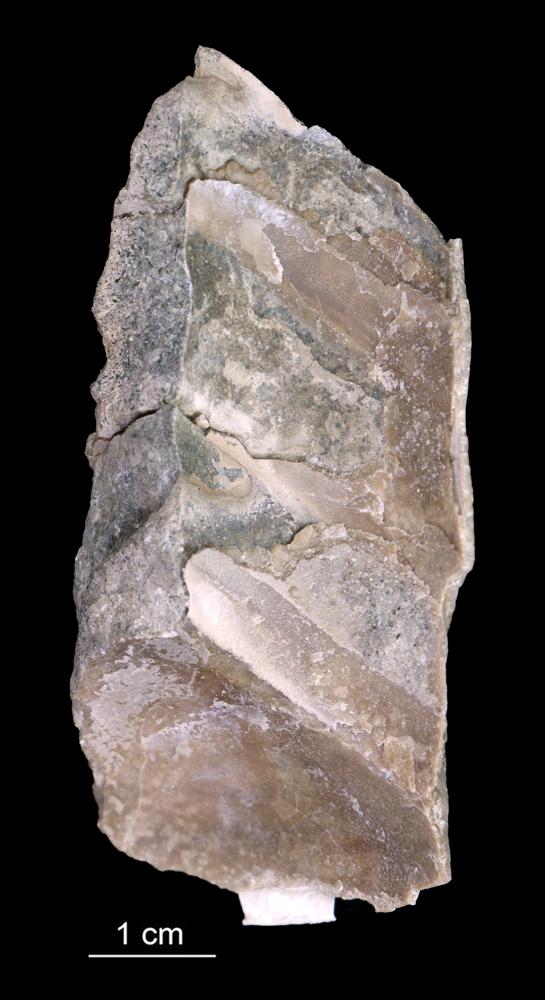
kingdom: Animalia
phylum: Mollusca
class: Cephalopoda
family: Endoceratidae
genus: Endoceras
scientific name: Endoceras
